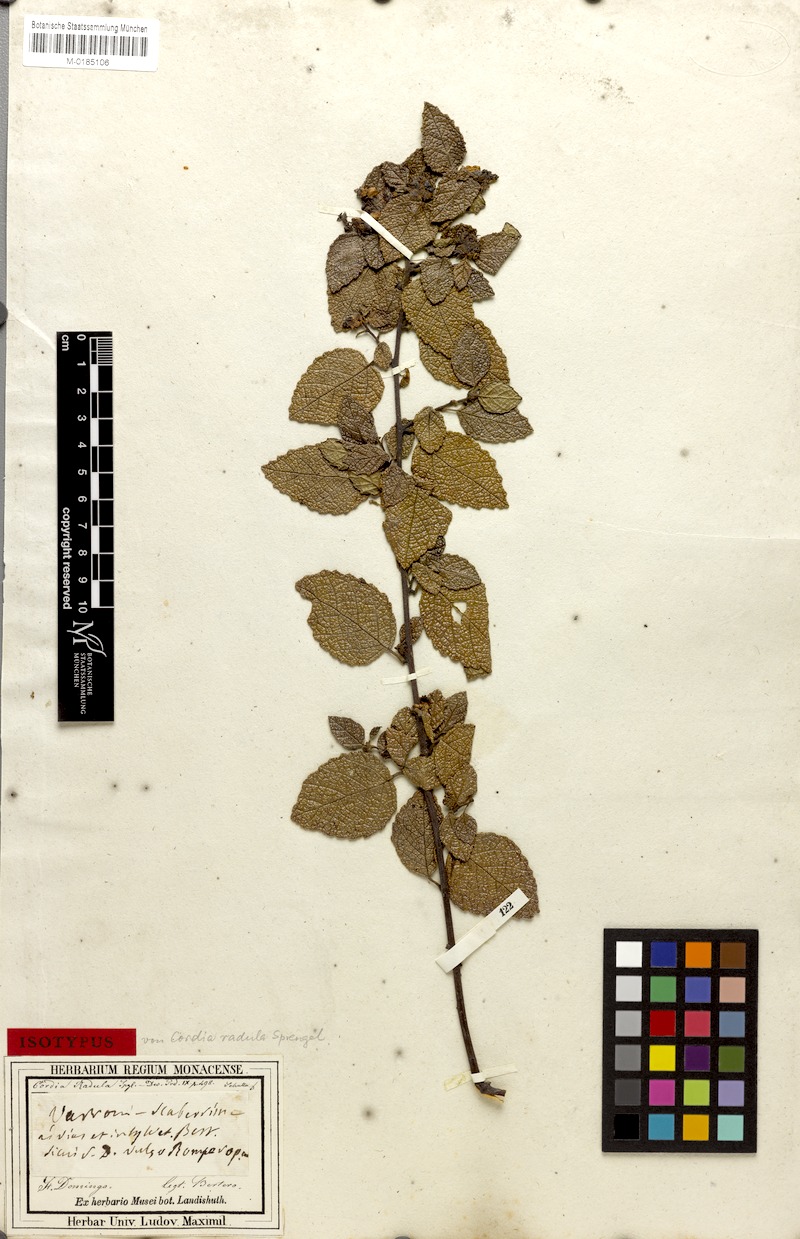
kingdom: Plantae
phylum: Tracheophyta
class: Magnoliopsida
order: Boraginales
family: Cordiaceae
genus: Varronia
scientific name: Varronia lima
